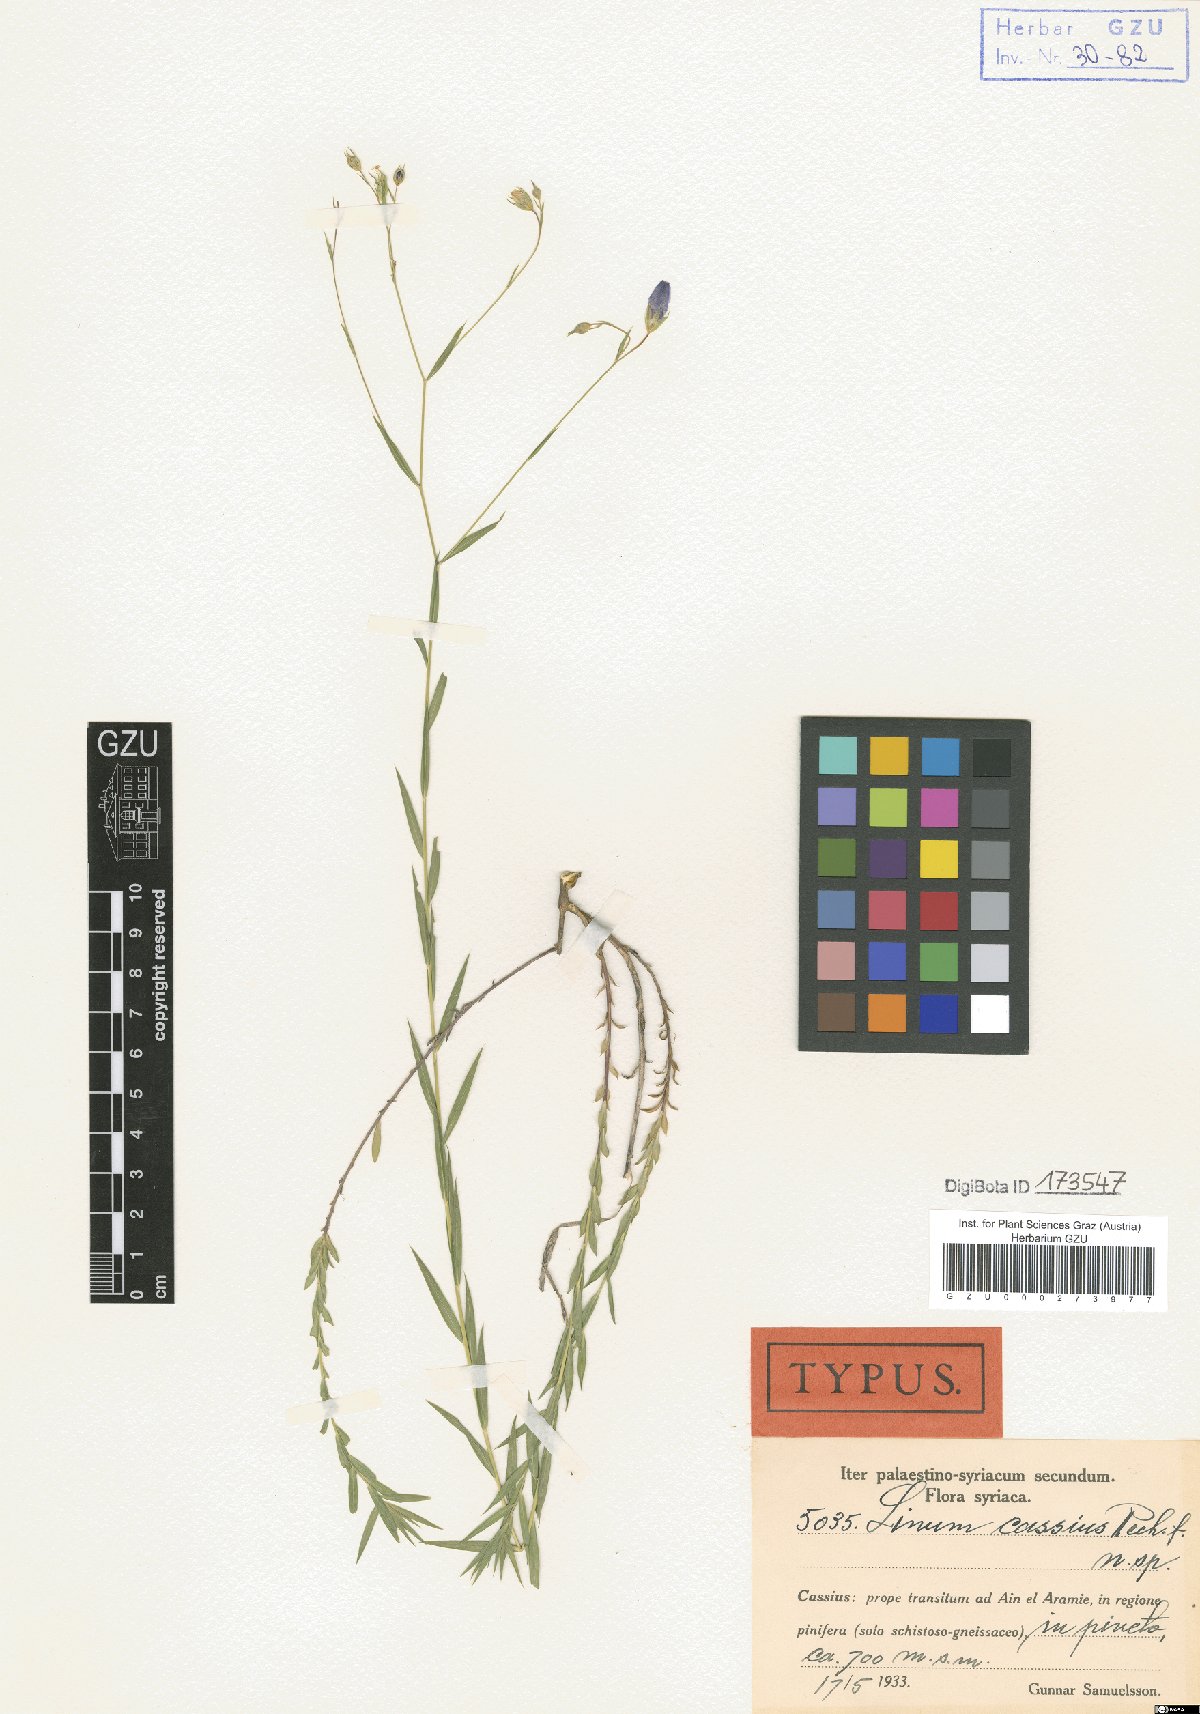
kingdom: Plantae
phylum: Tracheophyta
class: Magnoliopsida
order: Malpighiales
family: Linaceae
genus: Linum
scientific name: Linum aroanium
